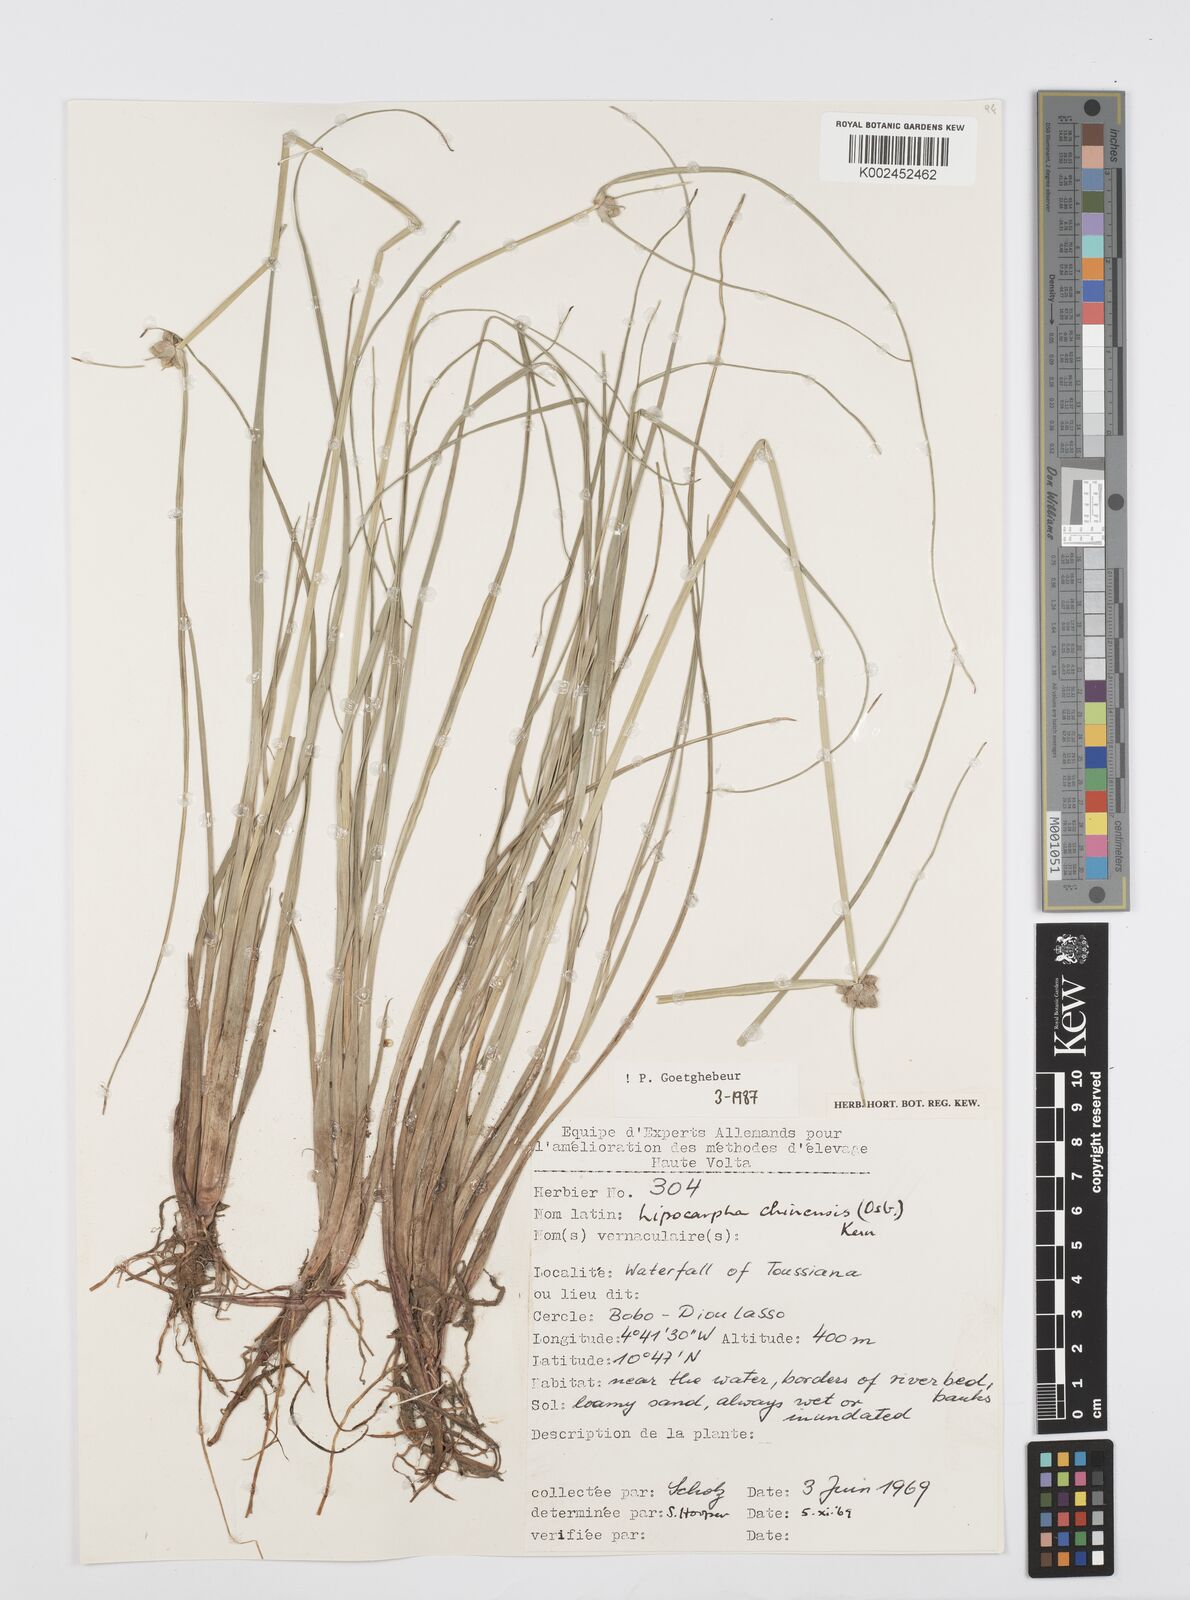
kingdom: Plantae
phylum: Tracheophyta
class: Liliopsida
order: Poales
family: Cyperaceae
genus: Cyperus
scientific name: Cyperus albescens
